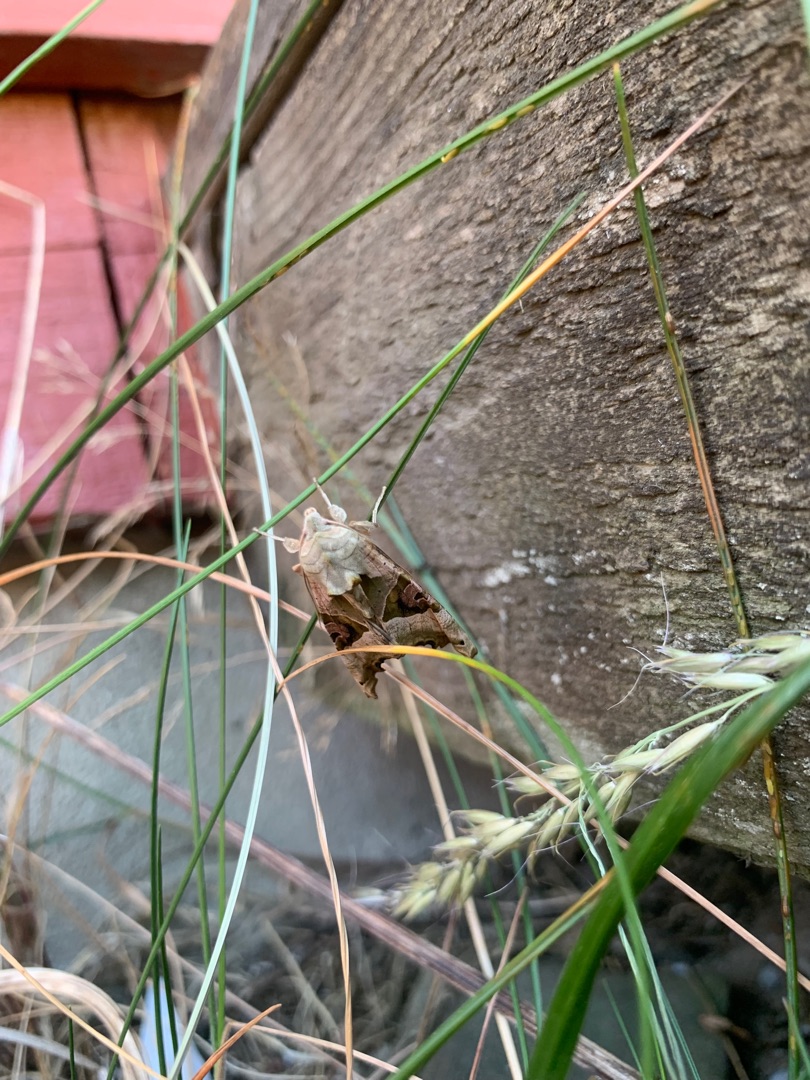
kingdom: Animalia
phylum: Arthropoda
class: Insecta
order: Lepidoptera
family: Noctuidae
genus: Phlogophora
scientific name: Phlogophora meticulosa
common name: Agatugle
